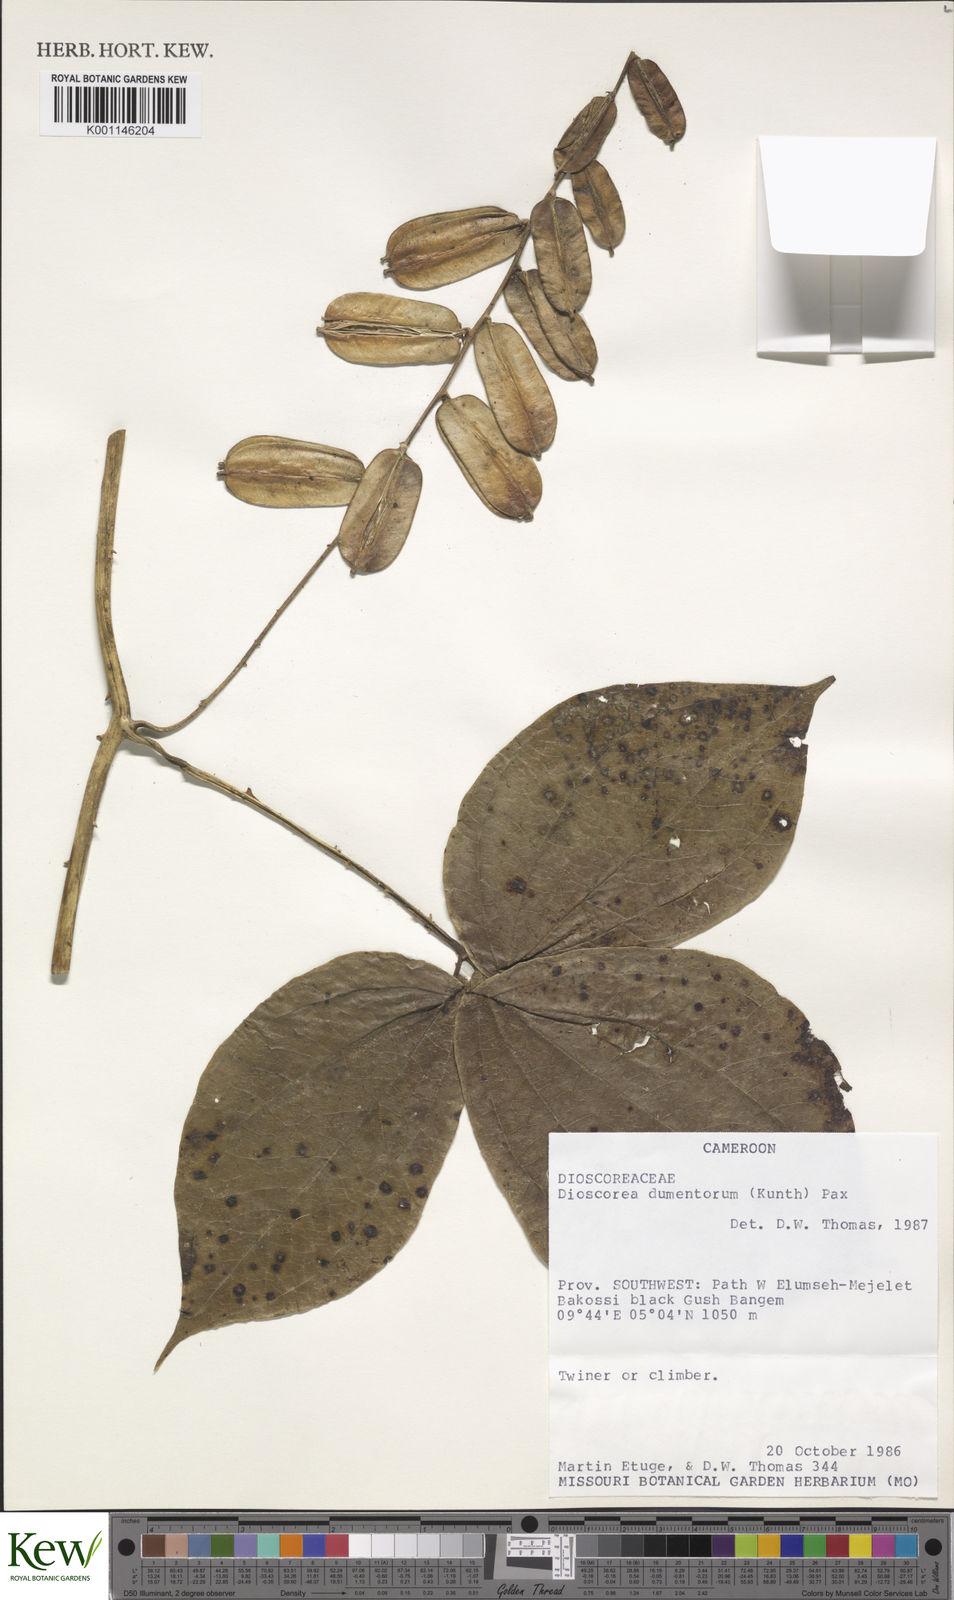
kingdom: Plantae
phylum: Tracheophyta
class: Liliopsida
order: Dioscoreales
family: Dioscoreaceae
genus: Dioscorea
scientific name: Dioscorea dumetorum
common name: African bitter yam
